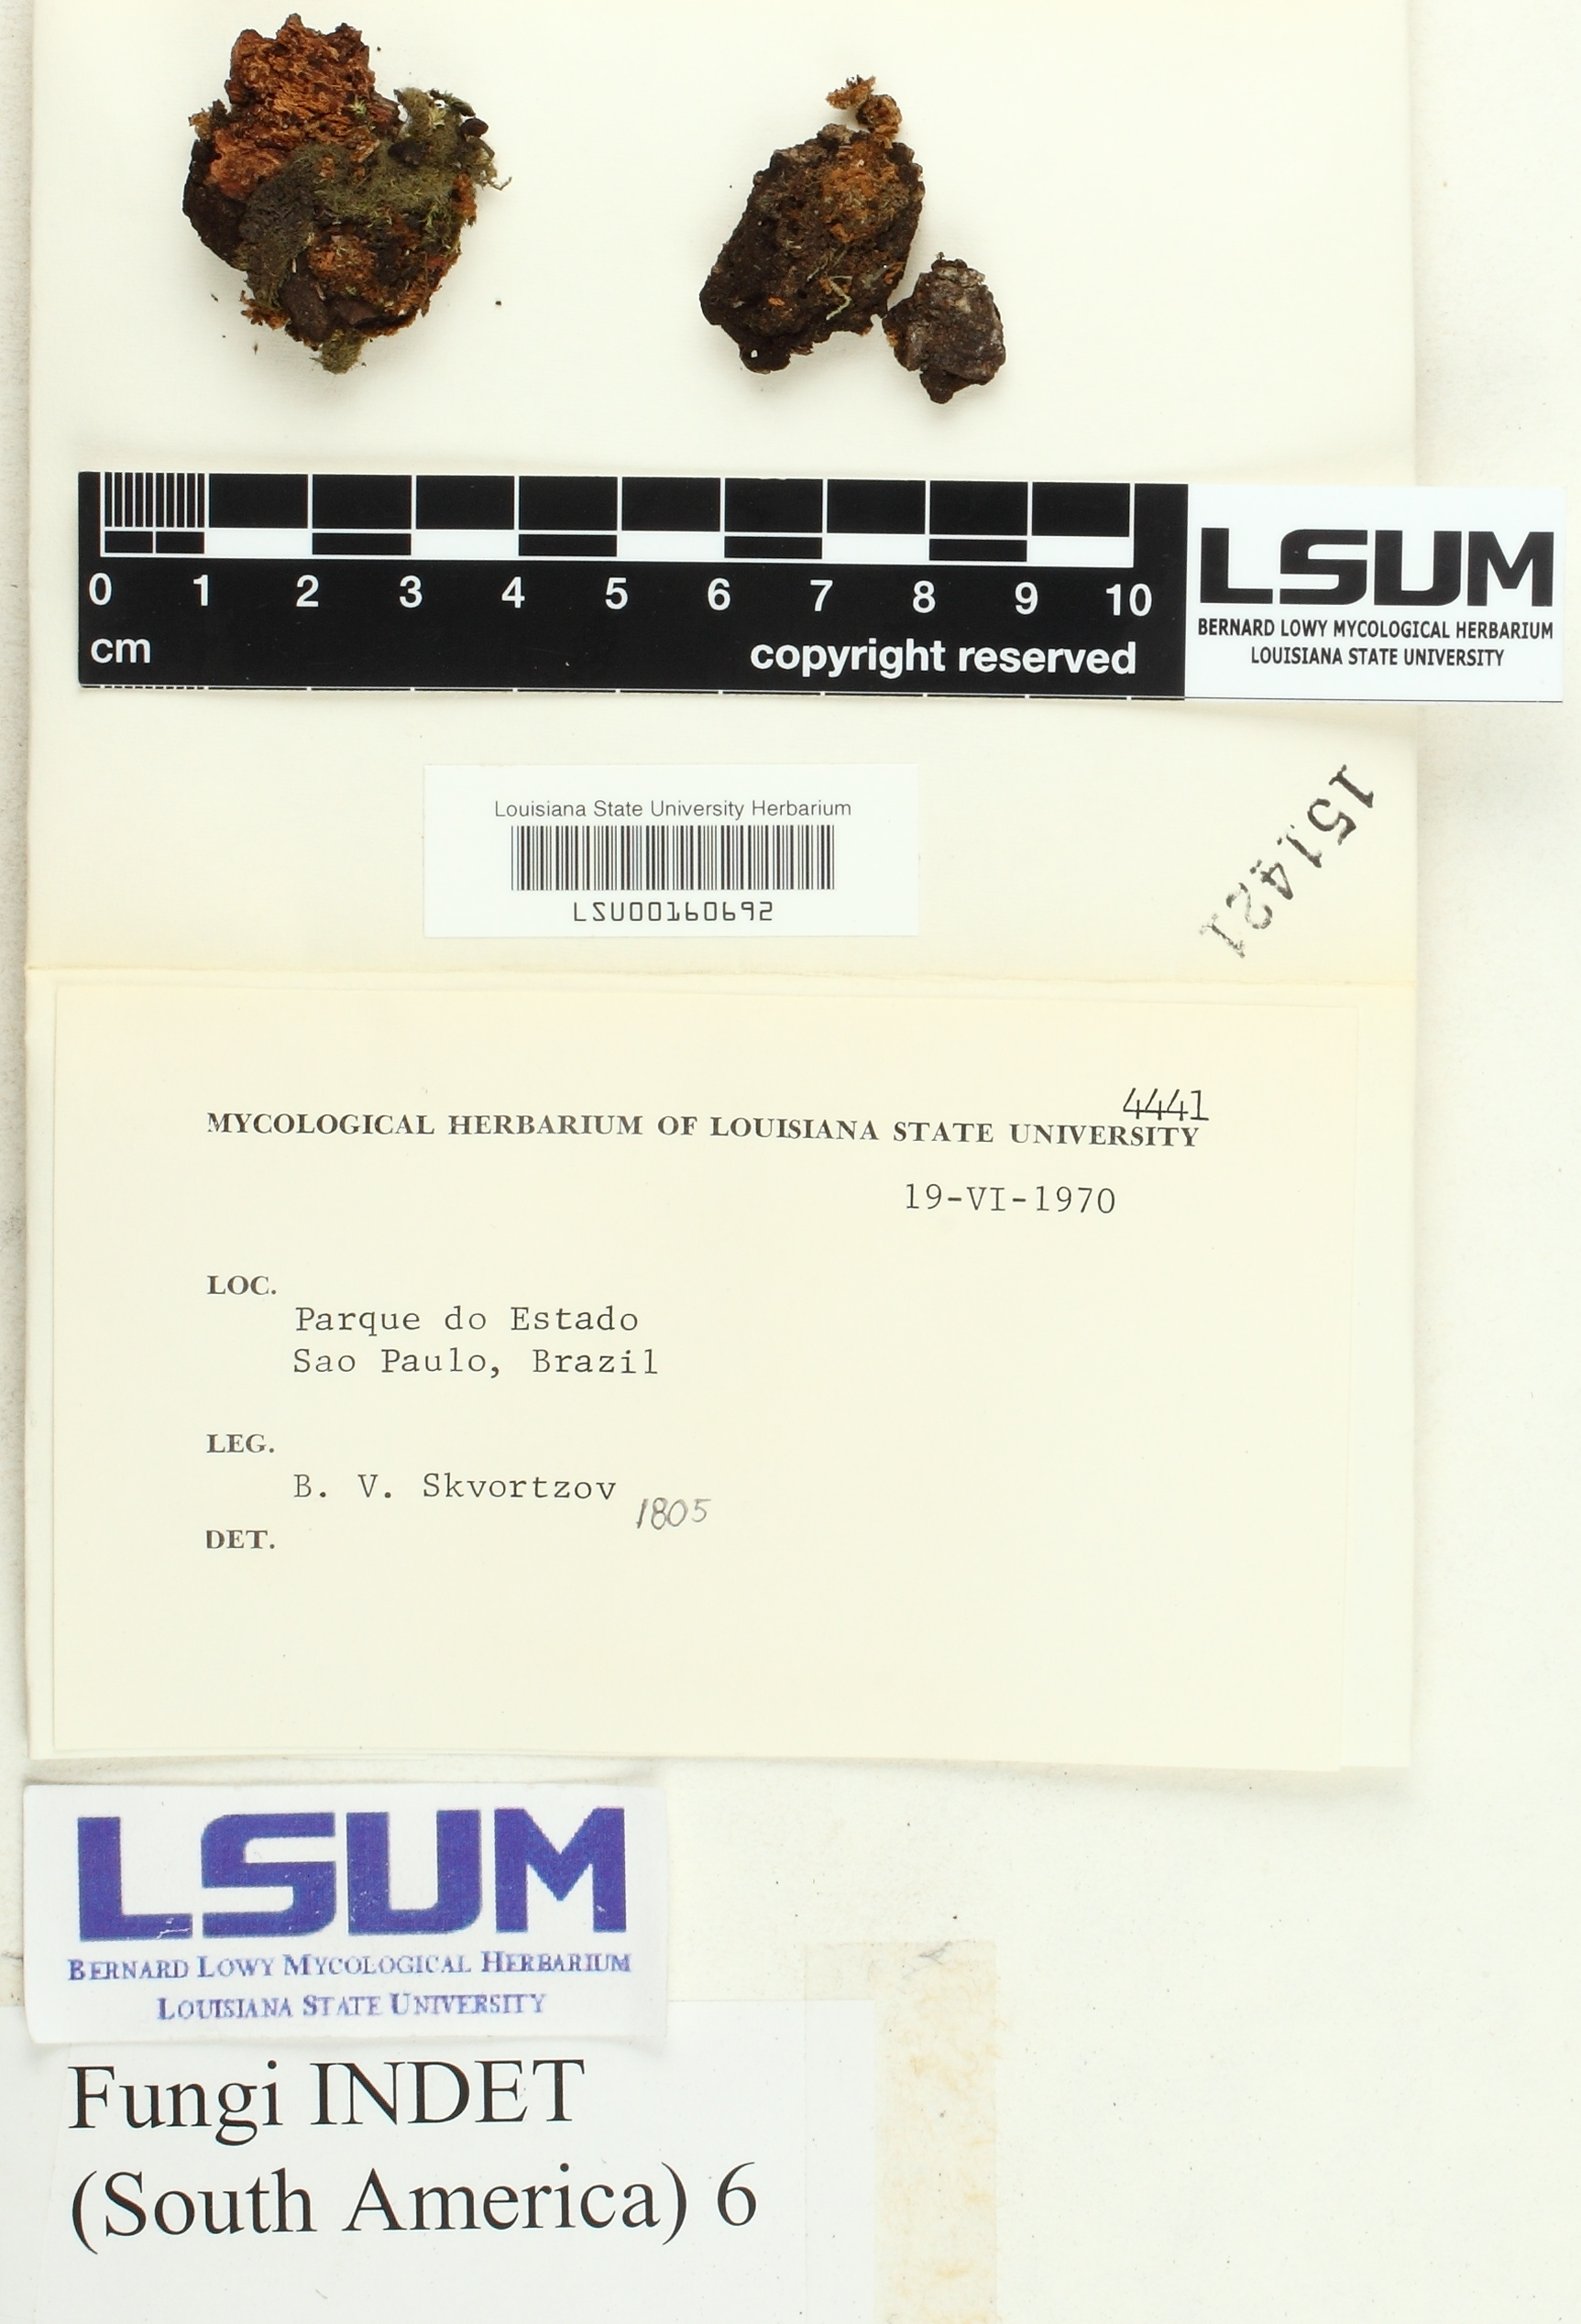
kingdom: Fungi
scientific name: Fungi
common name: Fungi
